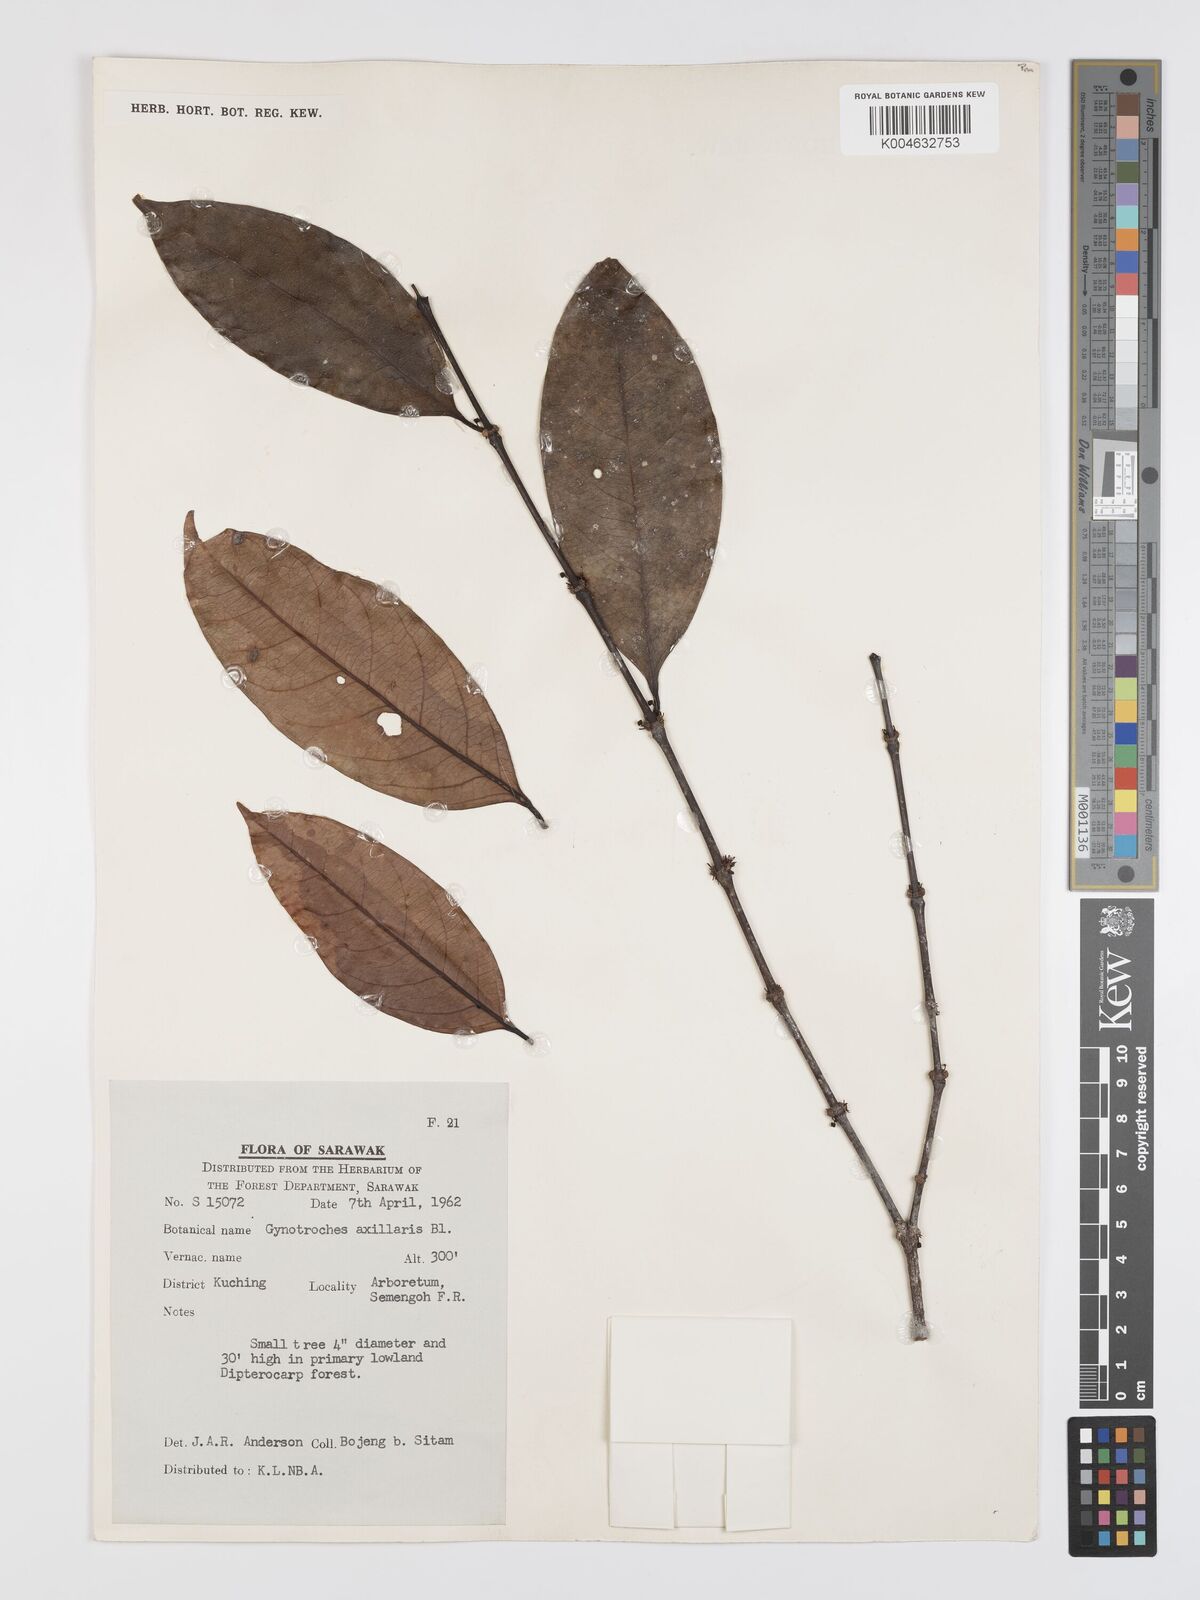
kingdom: Plantae
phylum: Tracheophyta
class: Magnoliopsida
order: Malpighiales
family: Rhizophoraceae
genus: Gynotroches
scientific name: Gynotroches axillaris
